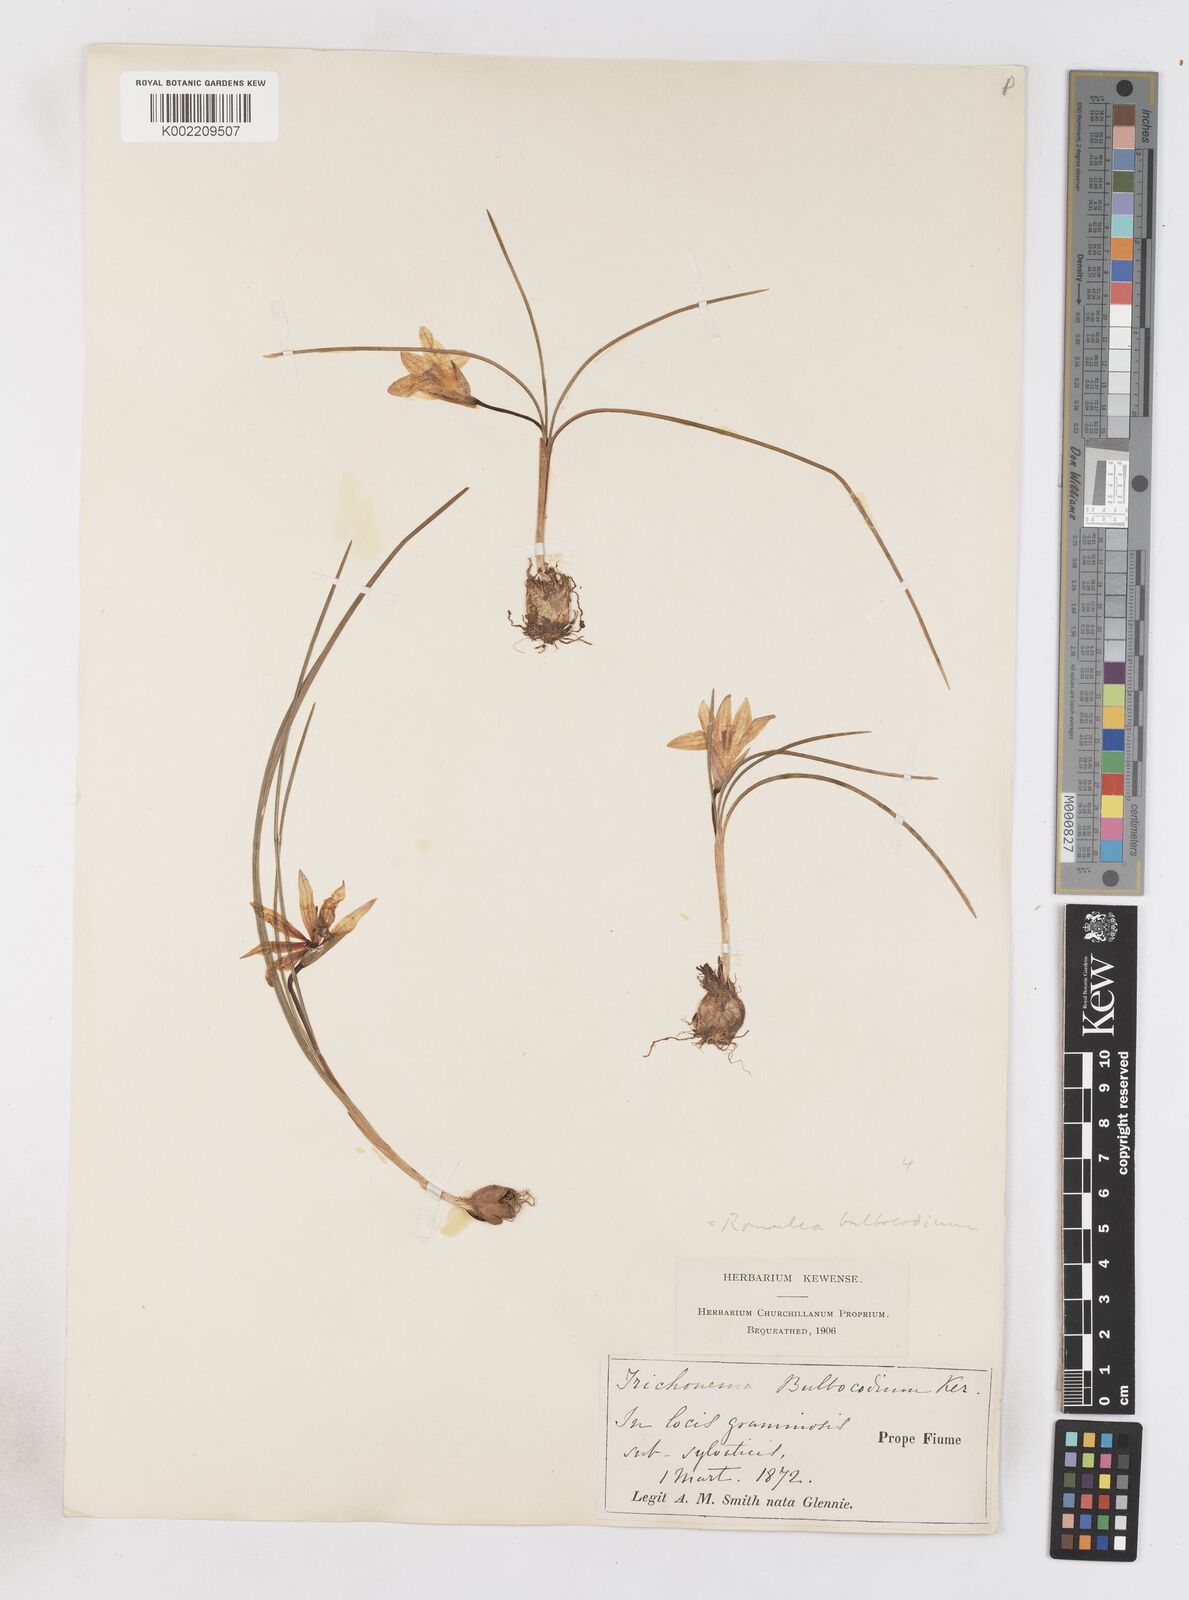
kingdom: Plantae
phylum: Tracheophyta
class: Liliopsida
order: Asparagales
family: Iridaceae
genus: Romulea
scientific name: Romulea bulbocodium
